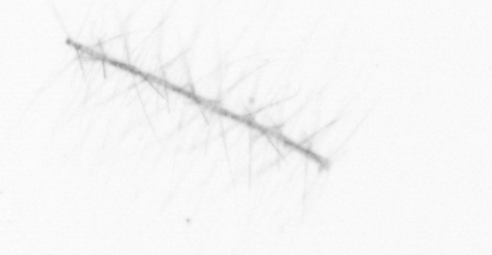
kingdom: Chromista
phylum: Ochrophyta
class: Bacillariophyceae
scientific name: Bacillariophyceae
